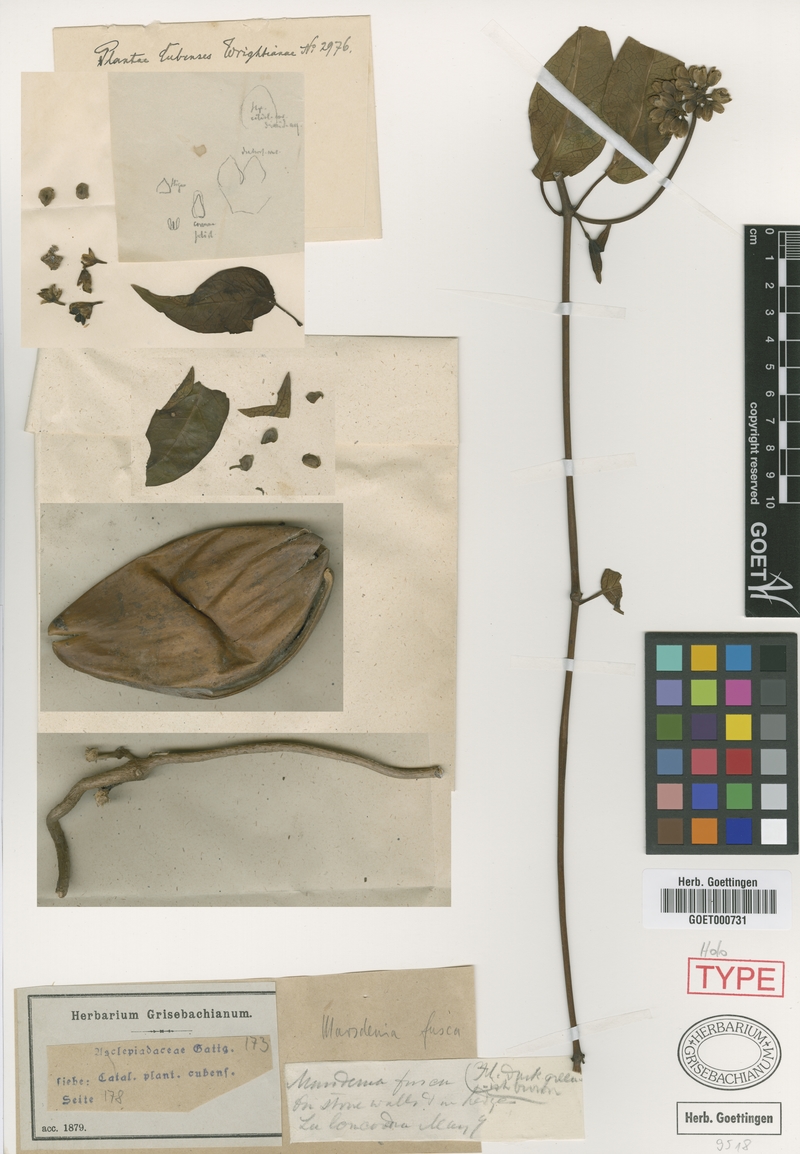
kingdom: Plantae
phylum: Tracheophyta
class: Magnoliopsida
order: Gentianales
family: Apocynaceae
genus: Ruehssia
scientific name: Ruehssia fusca
